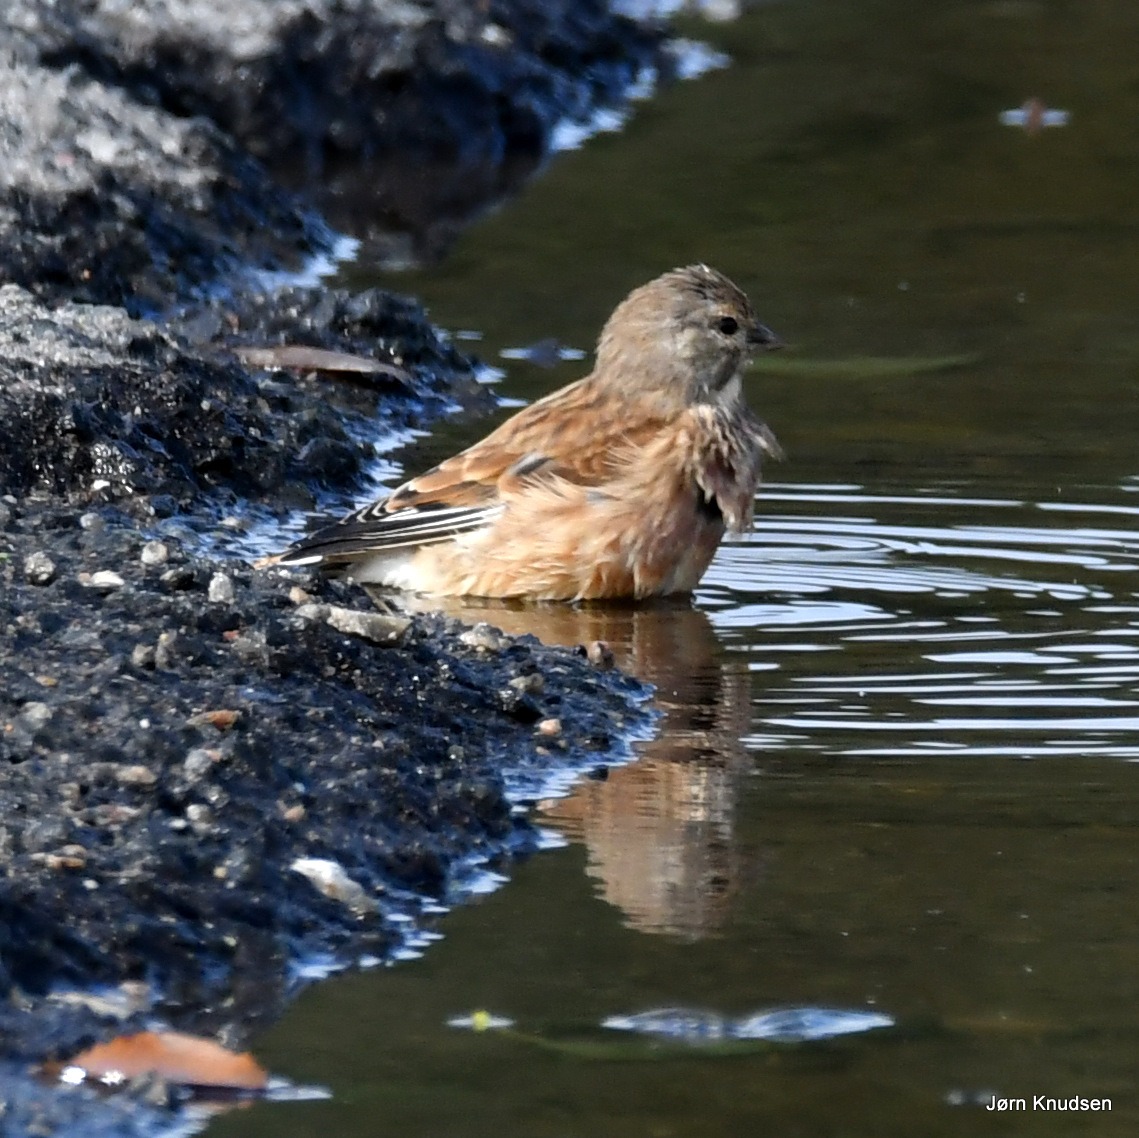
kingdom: Animalia
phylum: Chordata
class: Aves
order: Passeriformes
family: Fringillidae
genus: Linaria
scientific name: Linaria cannabina
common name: Tornirisk
